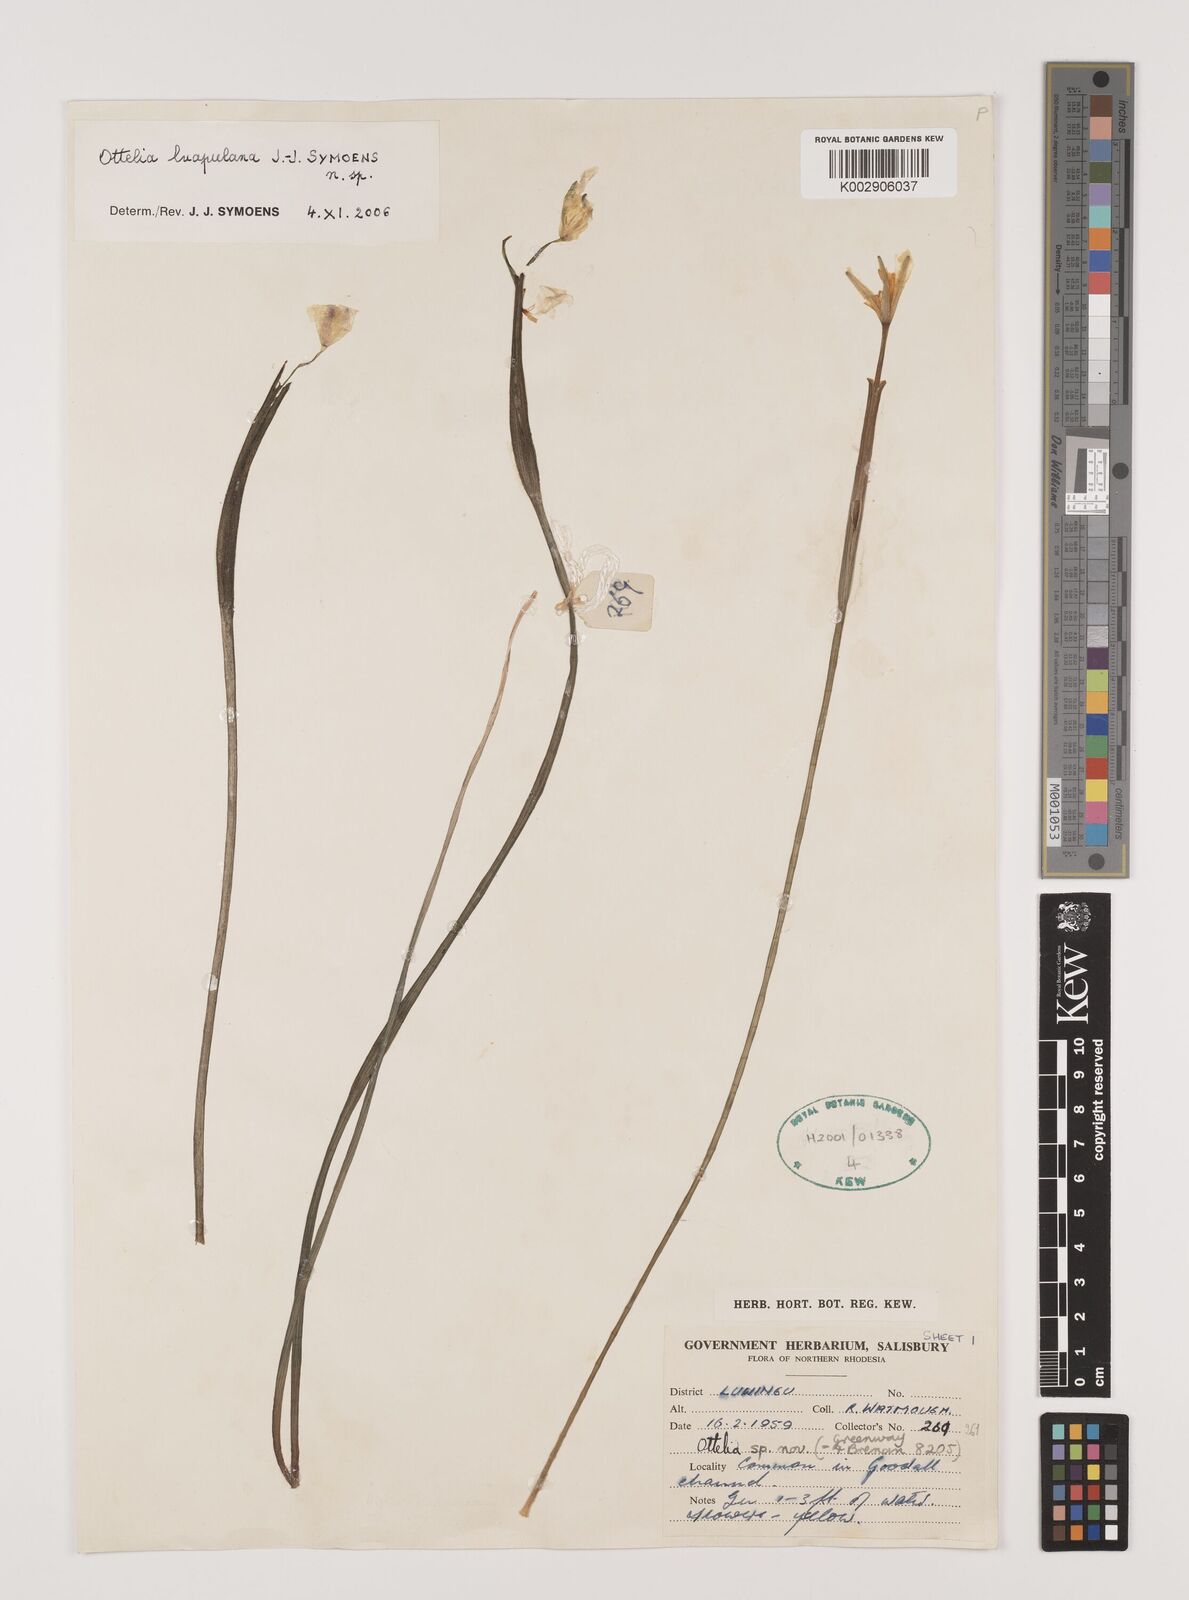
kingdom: Plantae
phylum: Tracheophyta
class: Liliopsida
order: Alismatales
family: Hydrocharitaceae
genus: Ottelia
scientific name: Ottelia obtusifolia
